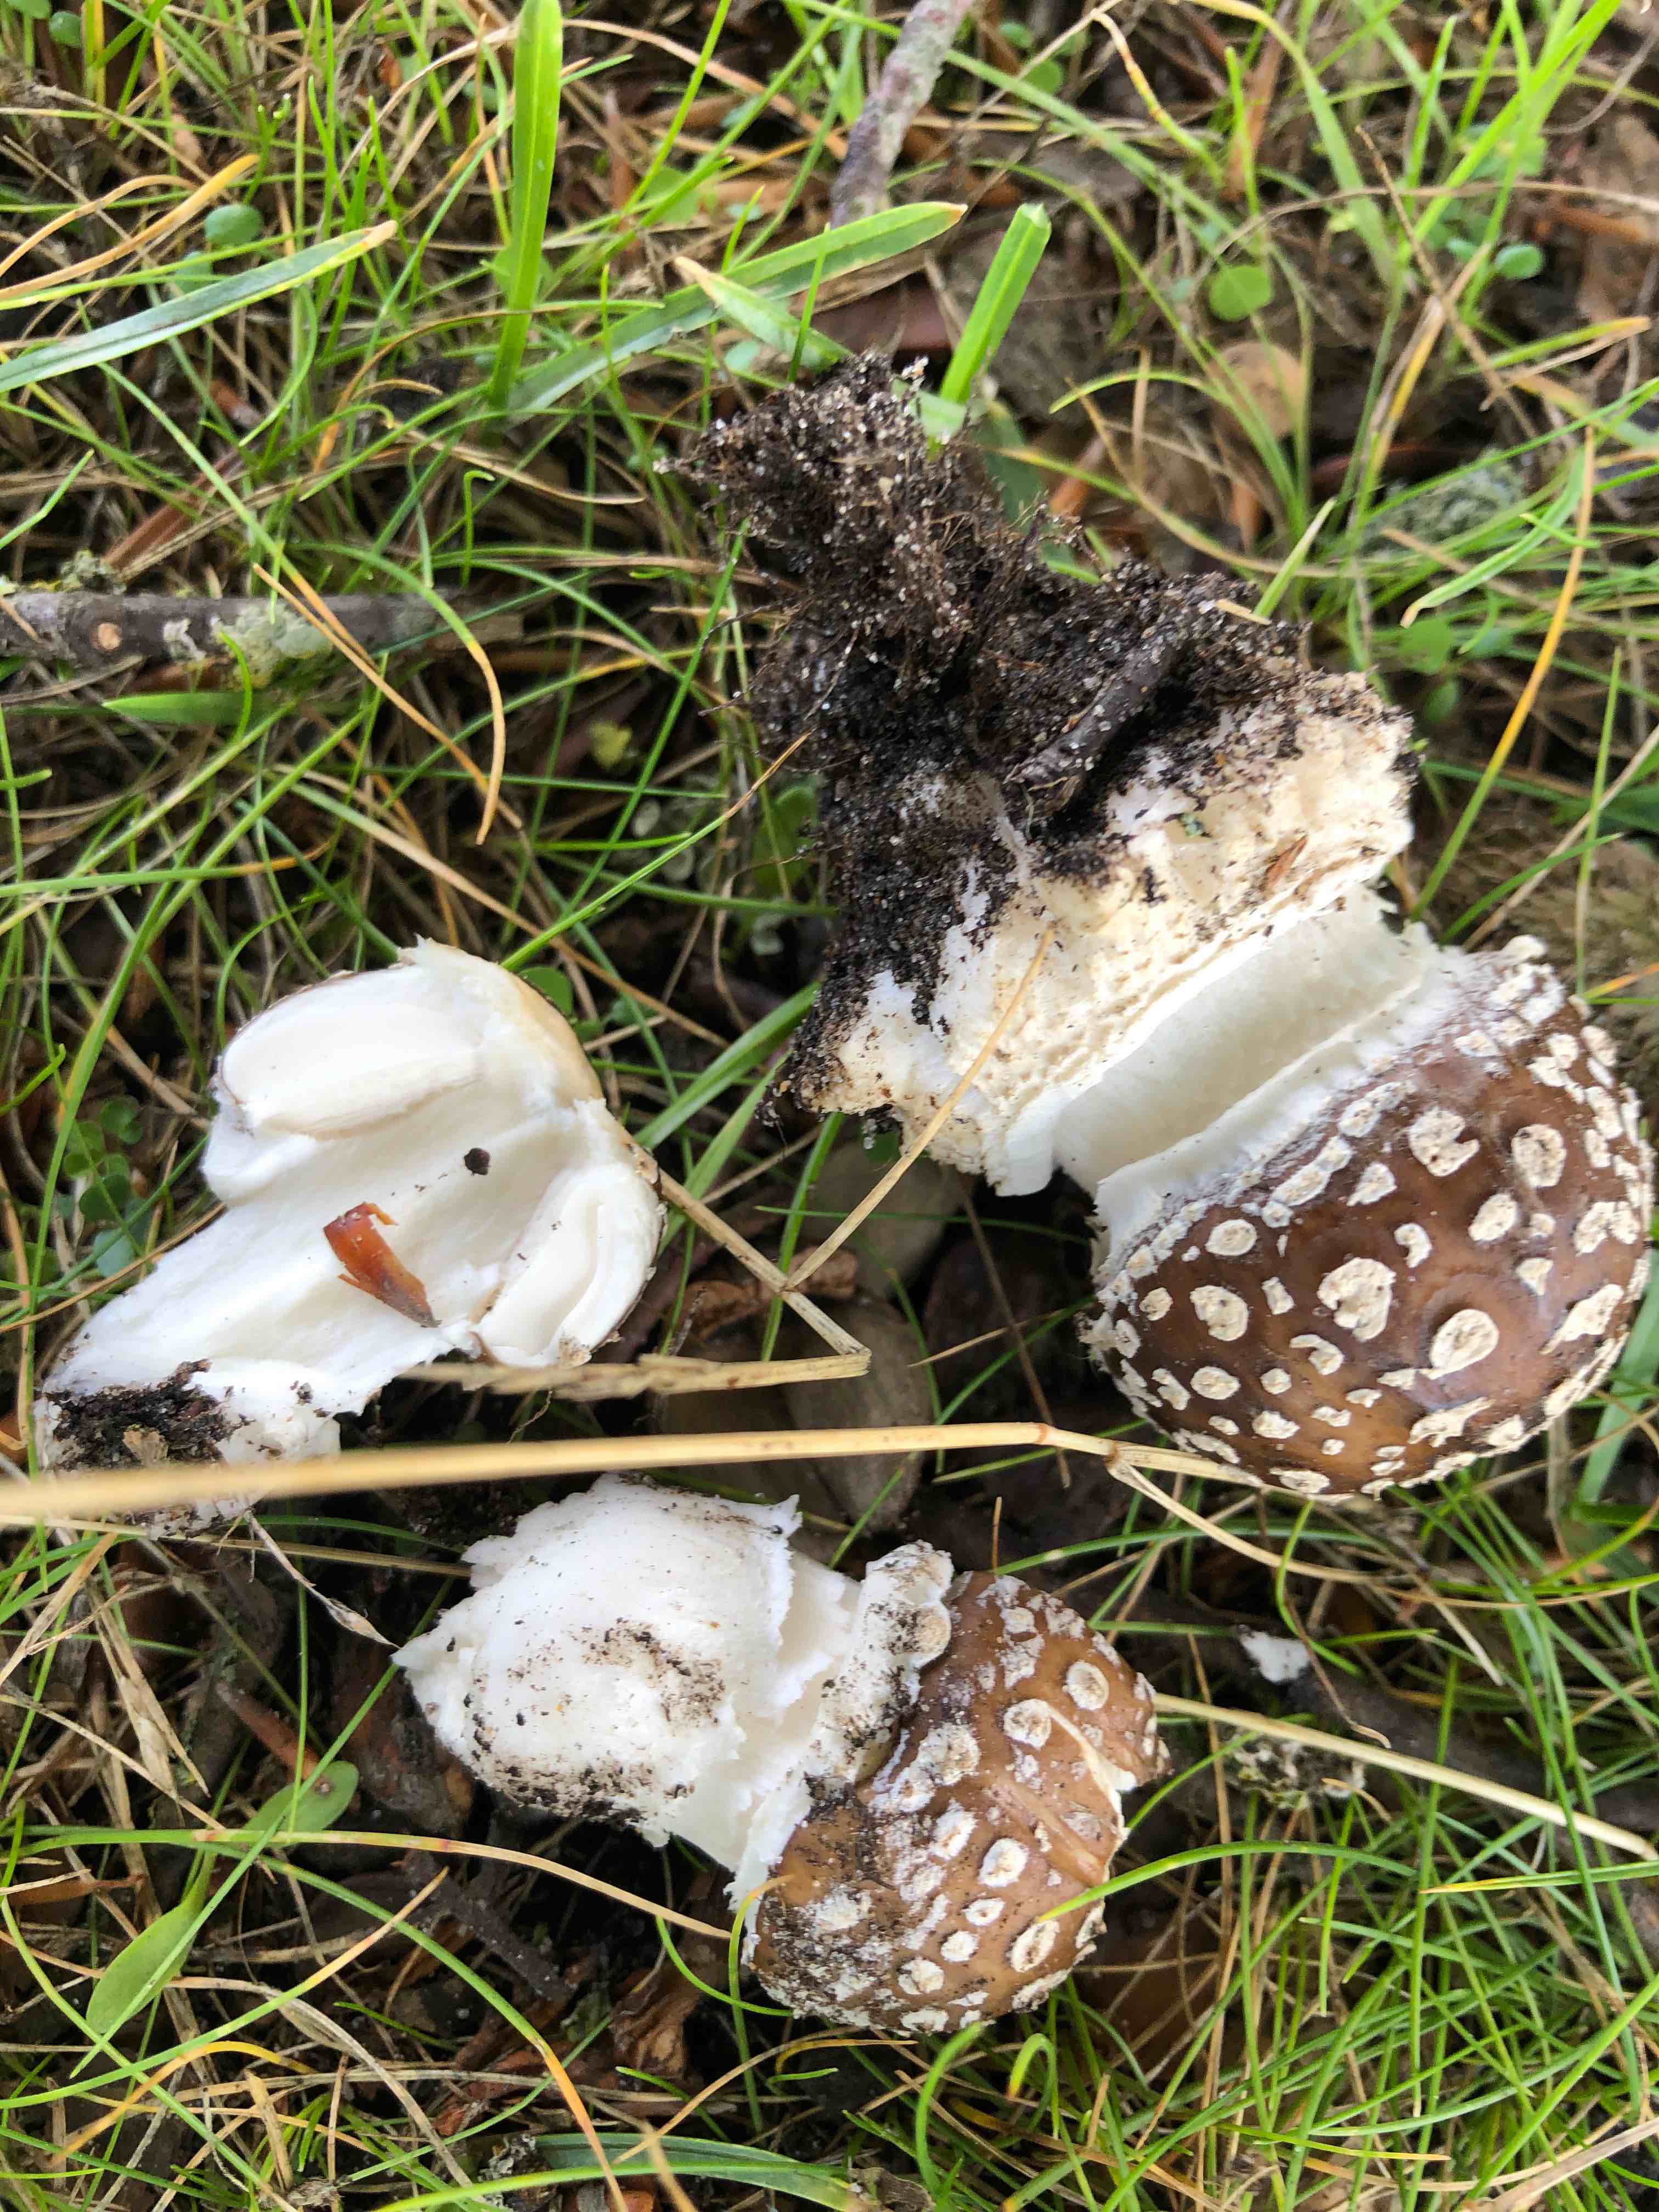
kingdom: Fungi
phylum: Basidiomycota
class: Agaricomycetes
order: Agaricales
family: Amanitaceae
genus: Amanita
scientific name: Amanita pantherina
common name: panter-fluesvamp
